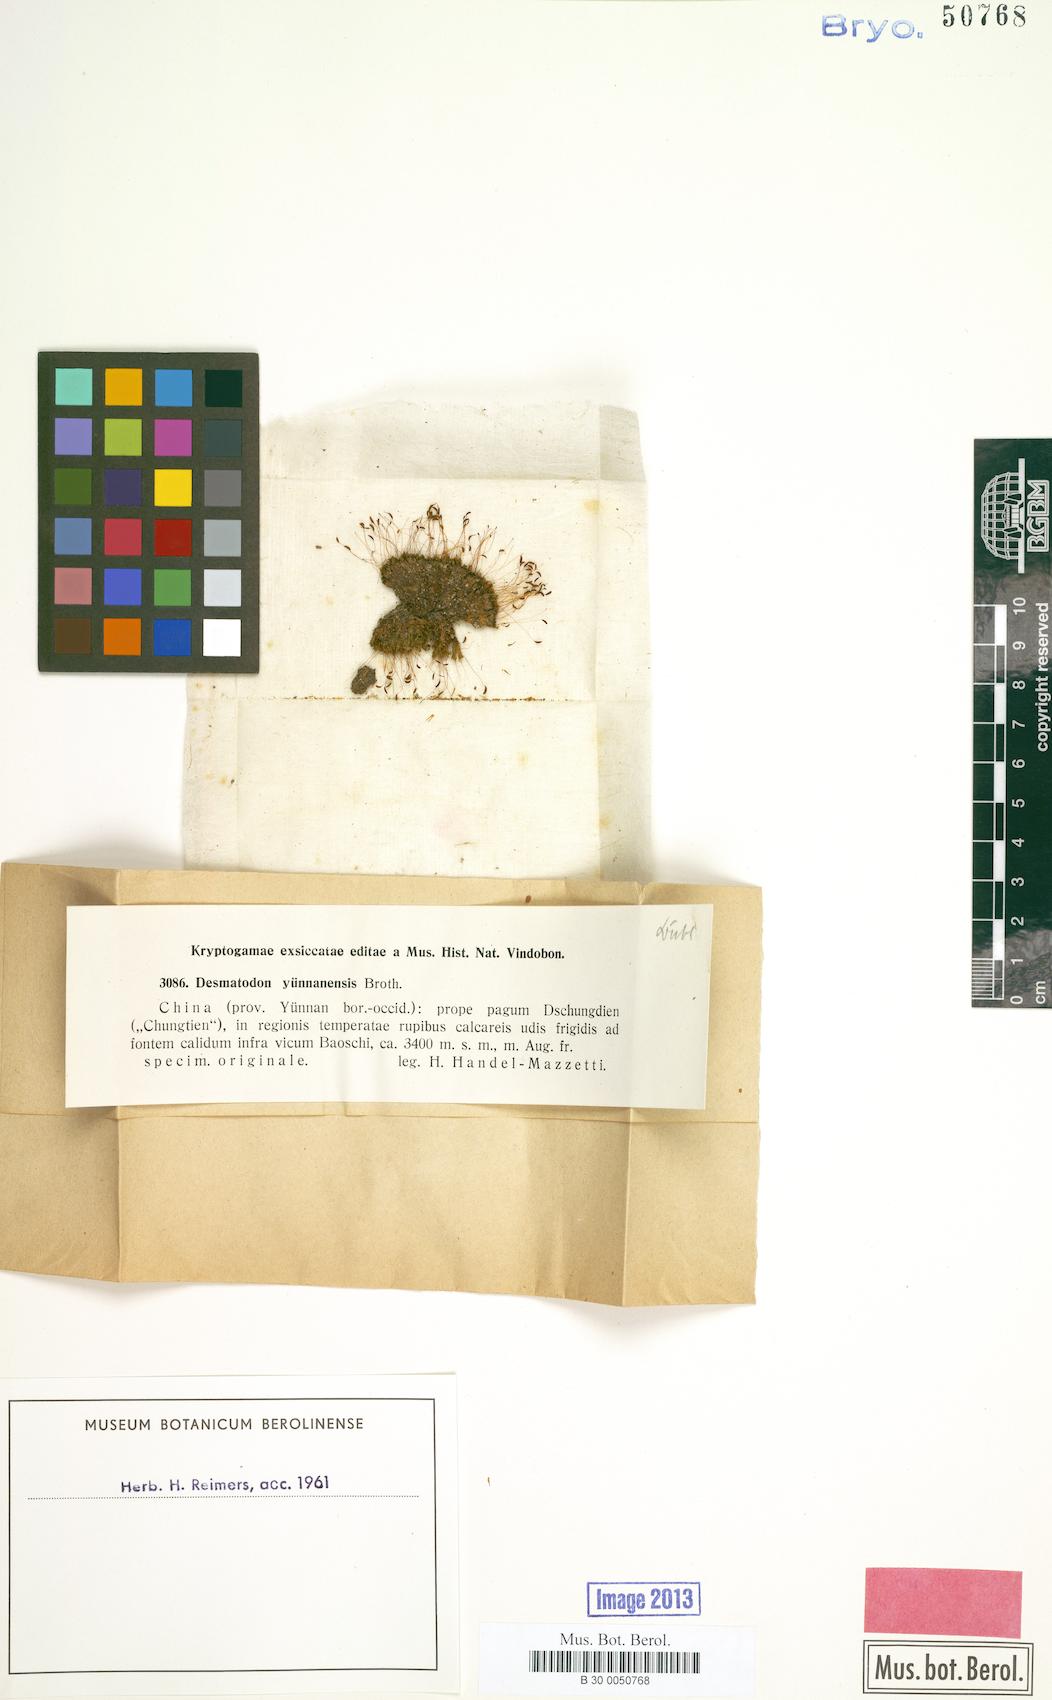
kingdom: Plantae
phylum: Bryophyta
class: Bryopsida
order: Pottiales
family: Pottiaceae
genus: Tortula
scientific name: Tortula chungtienia
